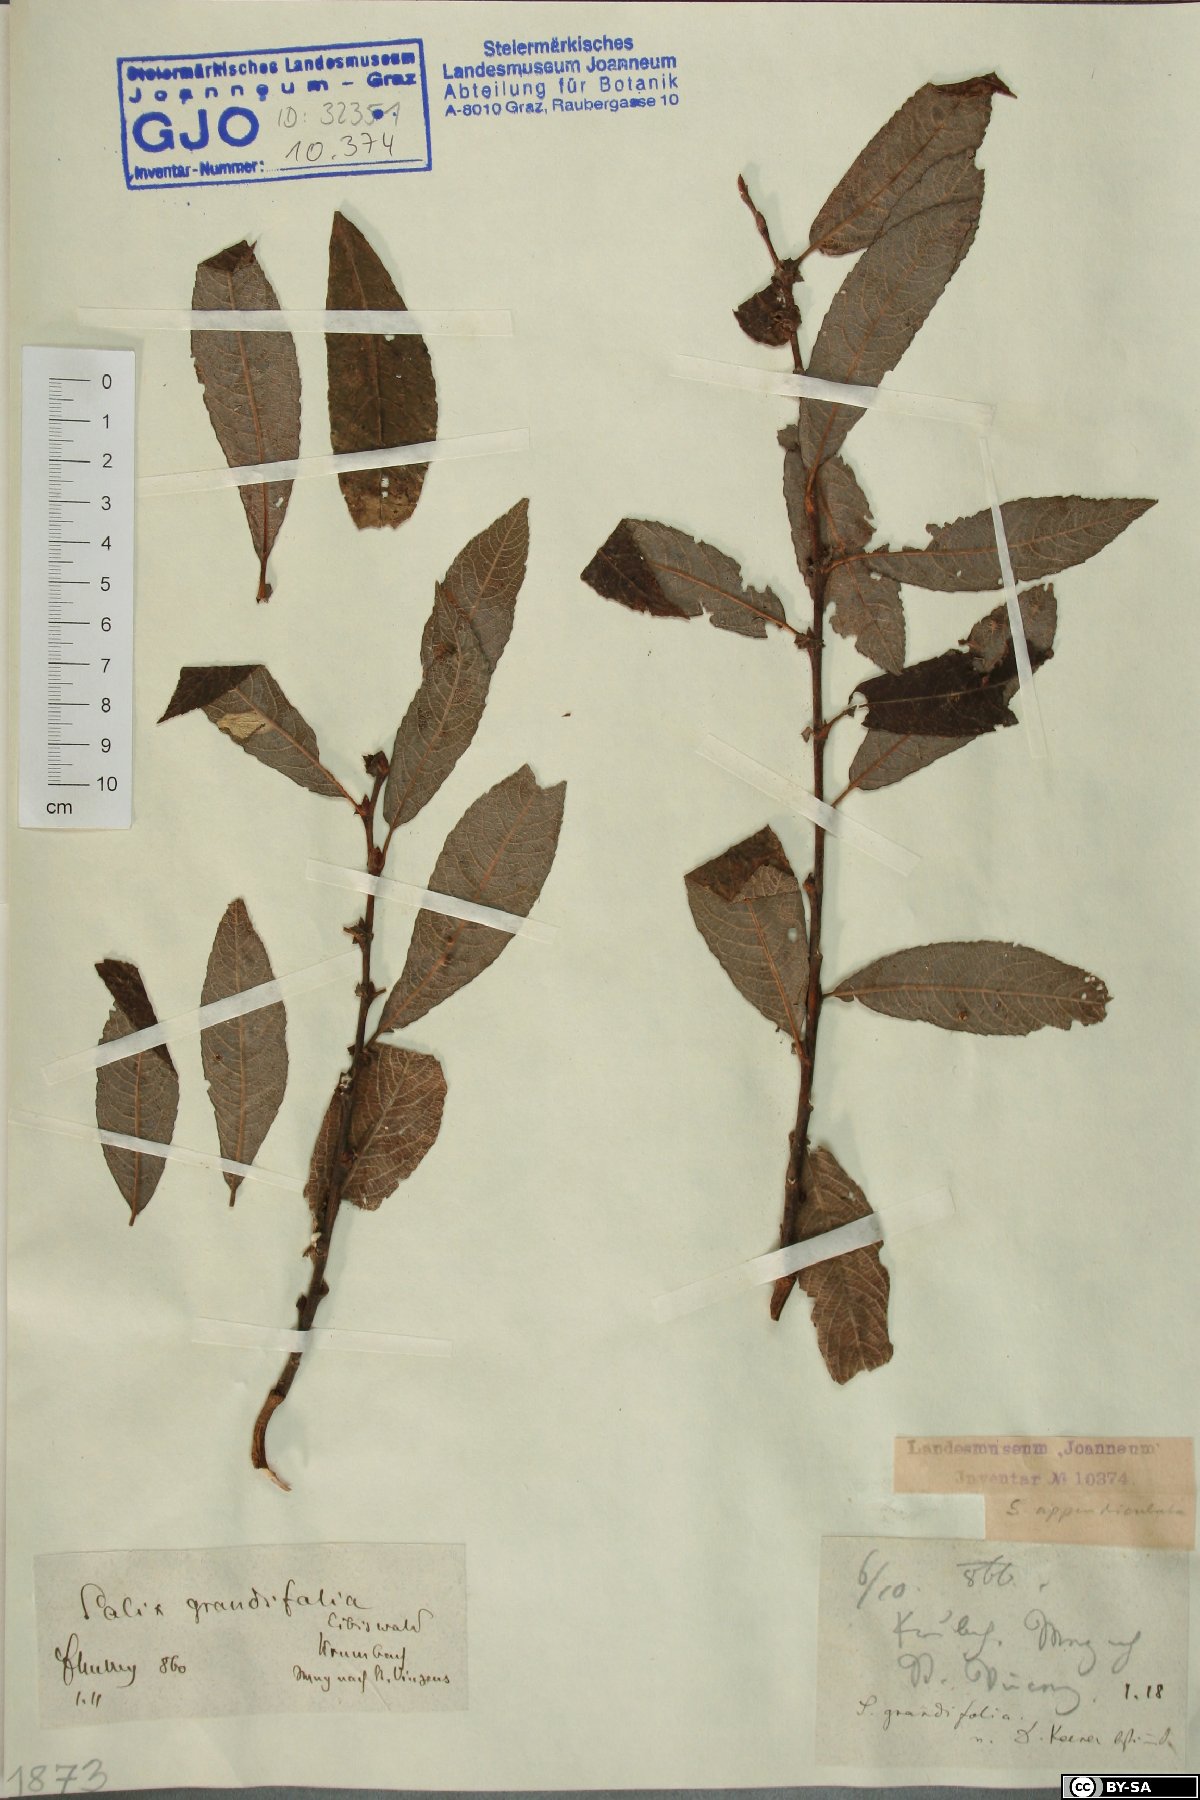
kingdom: Plantae
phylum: Tracheophyta
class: Magnoliopsida
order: Malpighiales
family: Salicaceae
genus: Salix
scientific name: Salix appendiculata
